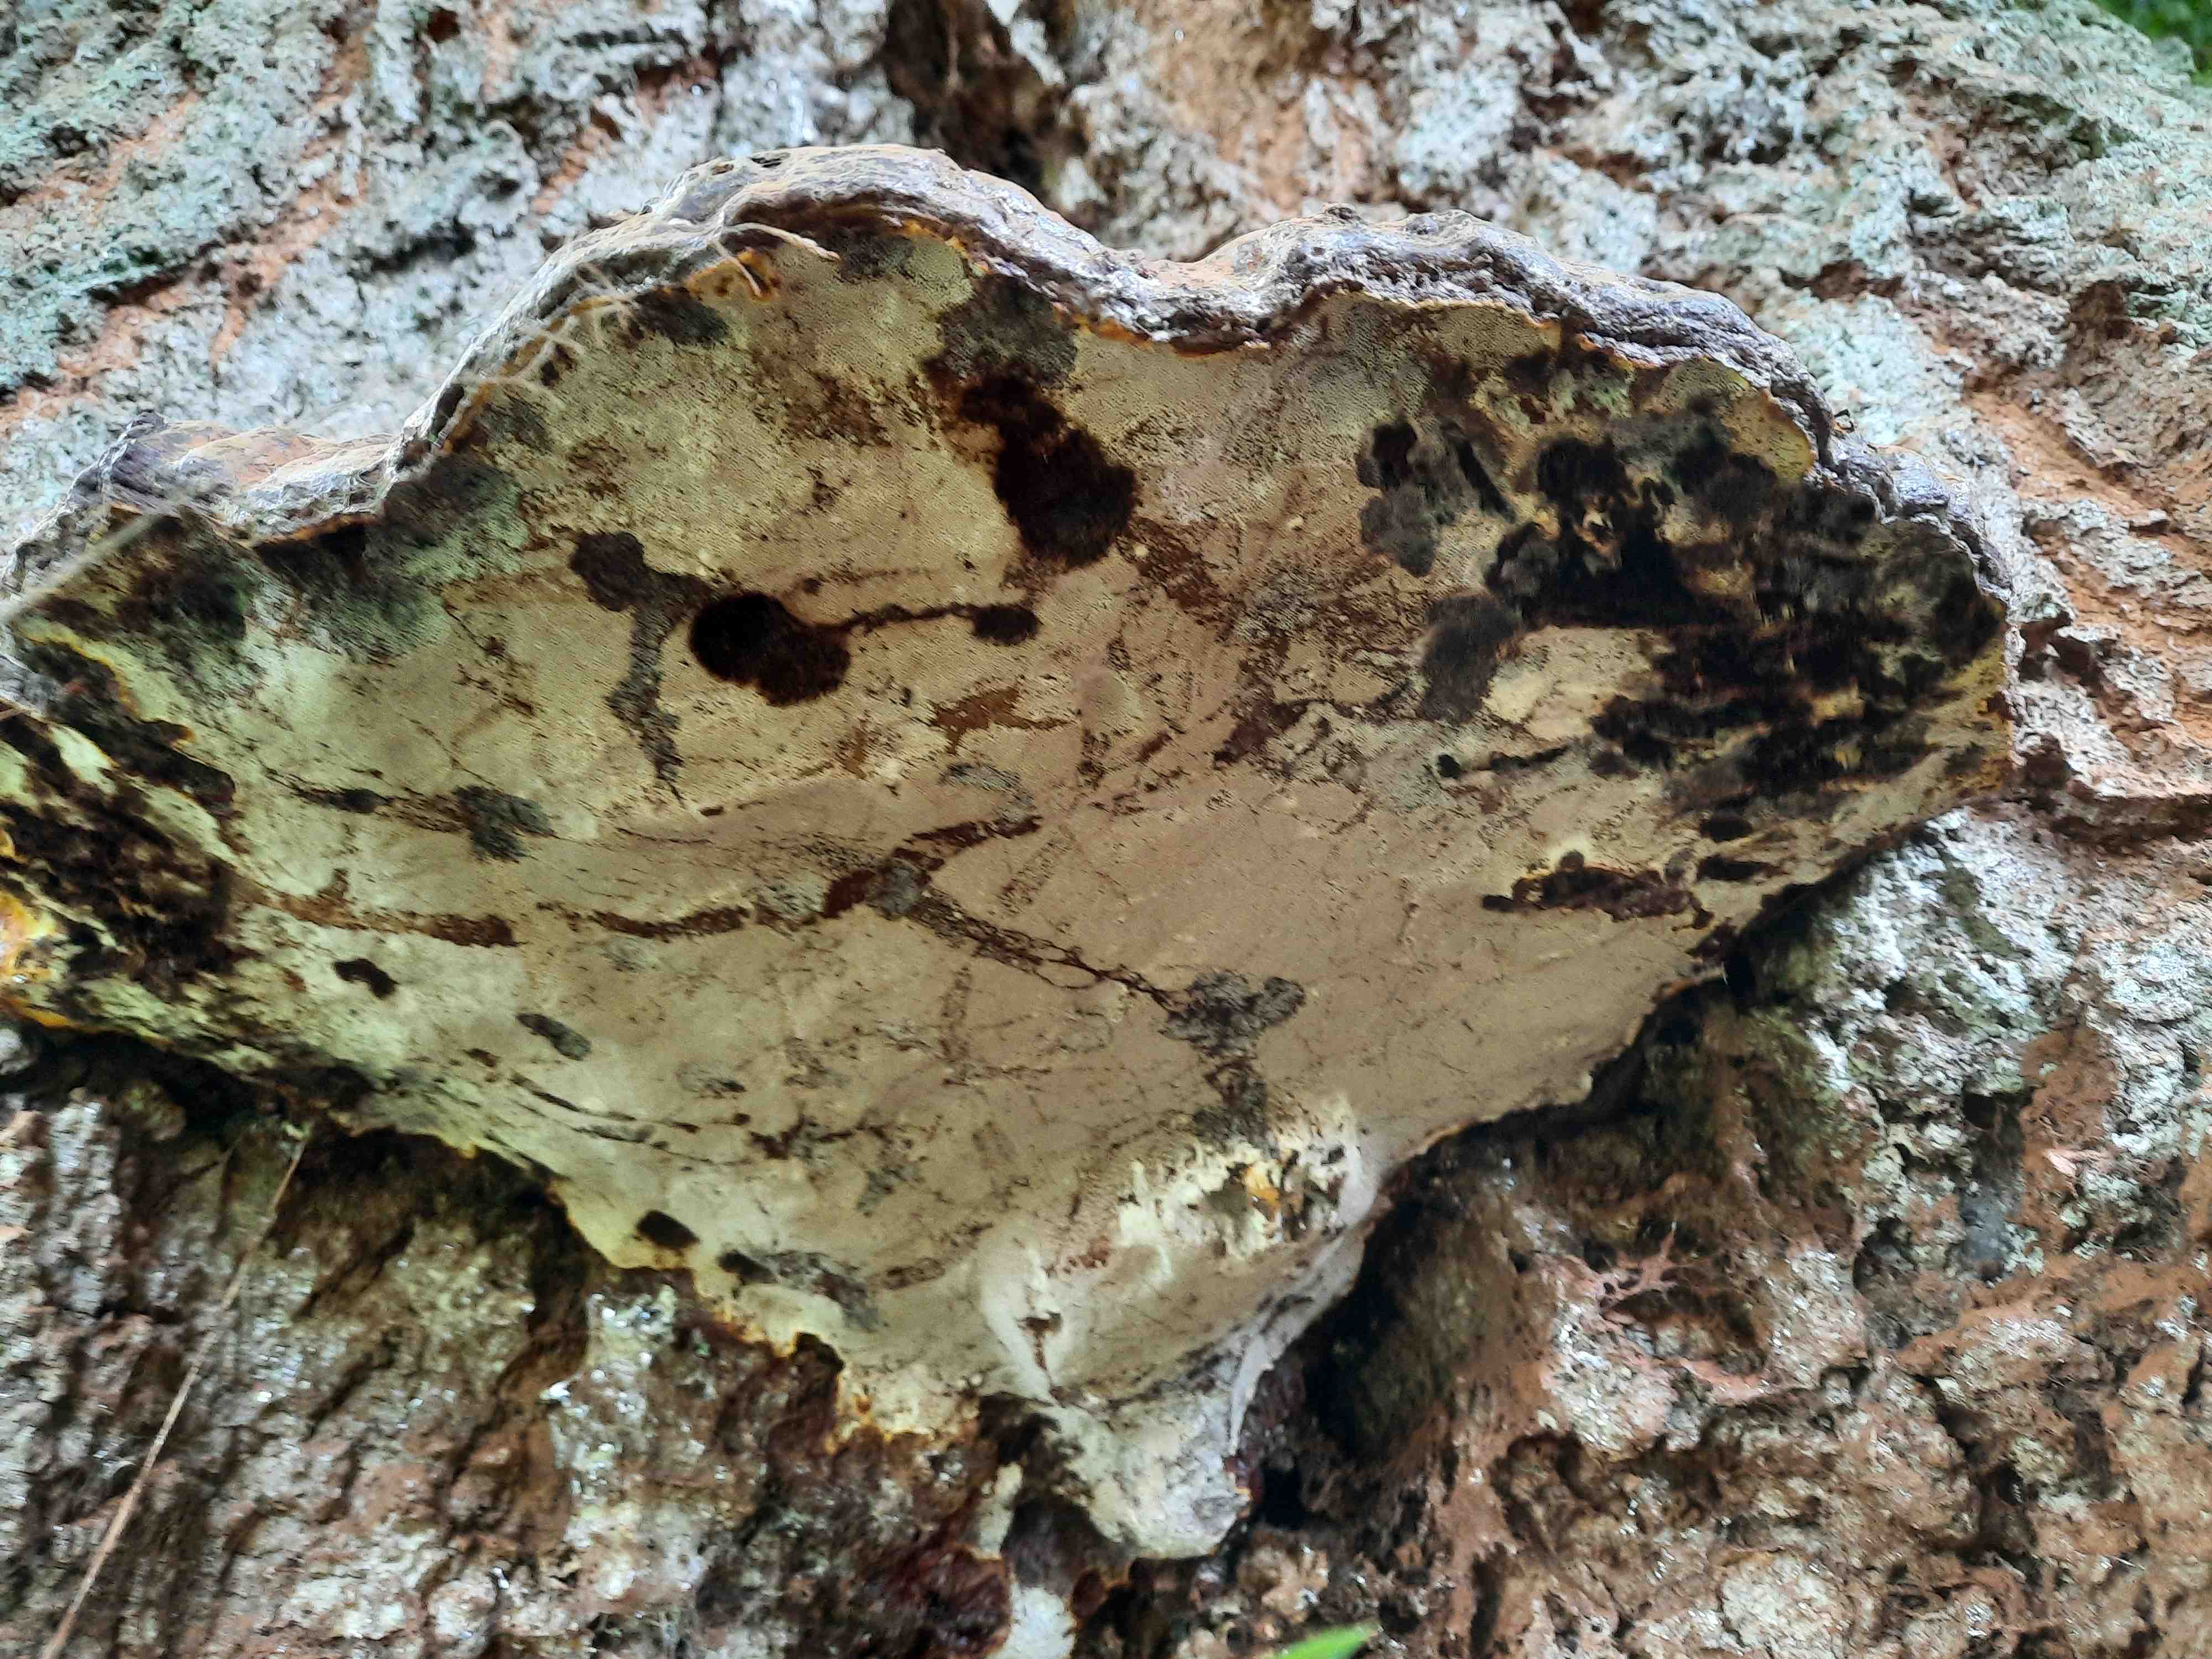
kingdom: Fungi
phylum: Basidiomycota
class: Agaricomycetes
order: Polyporales
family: Polyporaceae
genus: Ganoderma
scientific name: Ganoderma resinaceum
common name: gyldenbrun lakporesvamp
